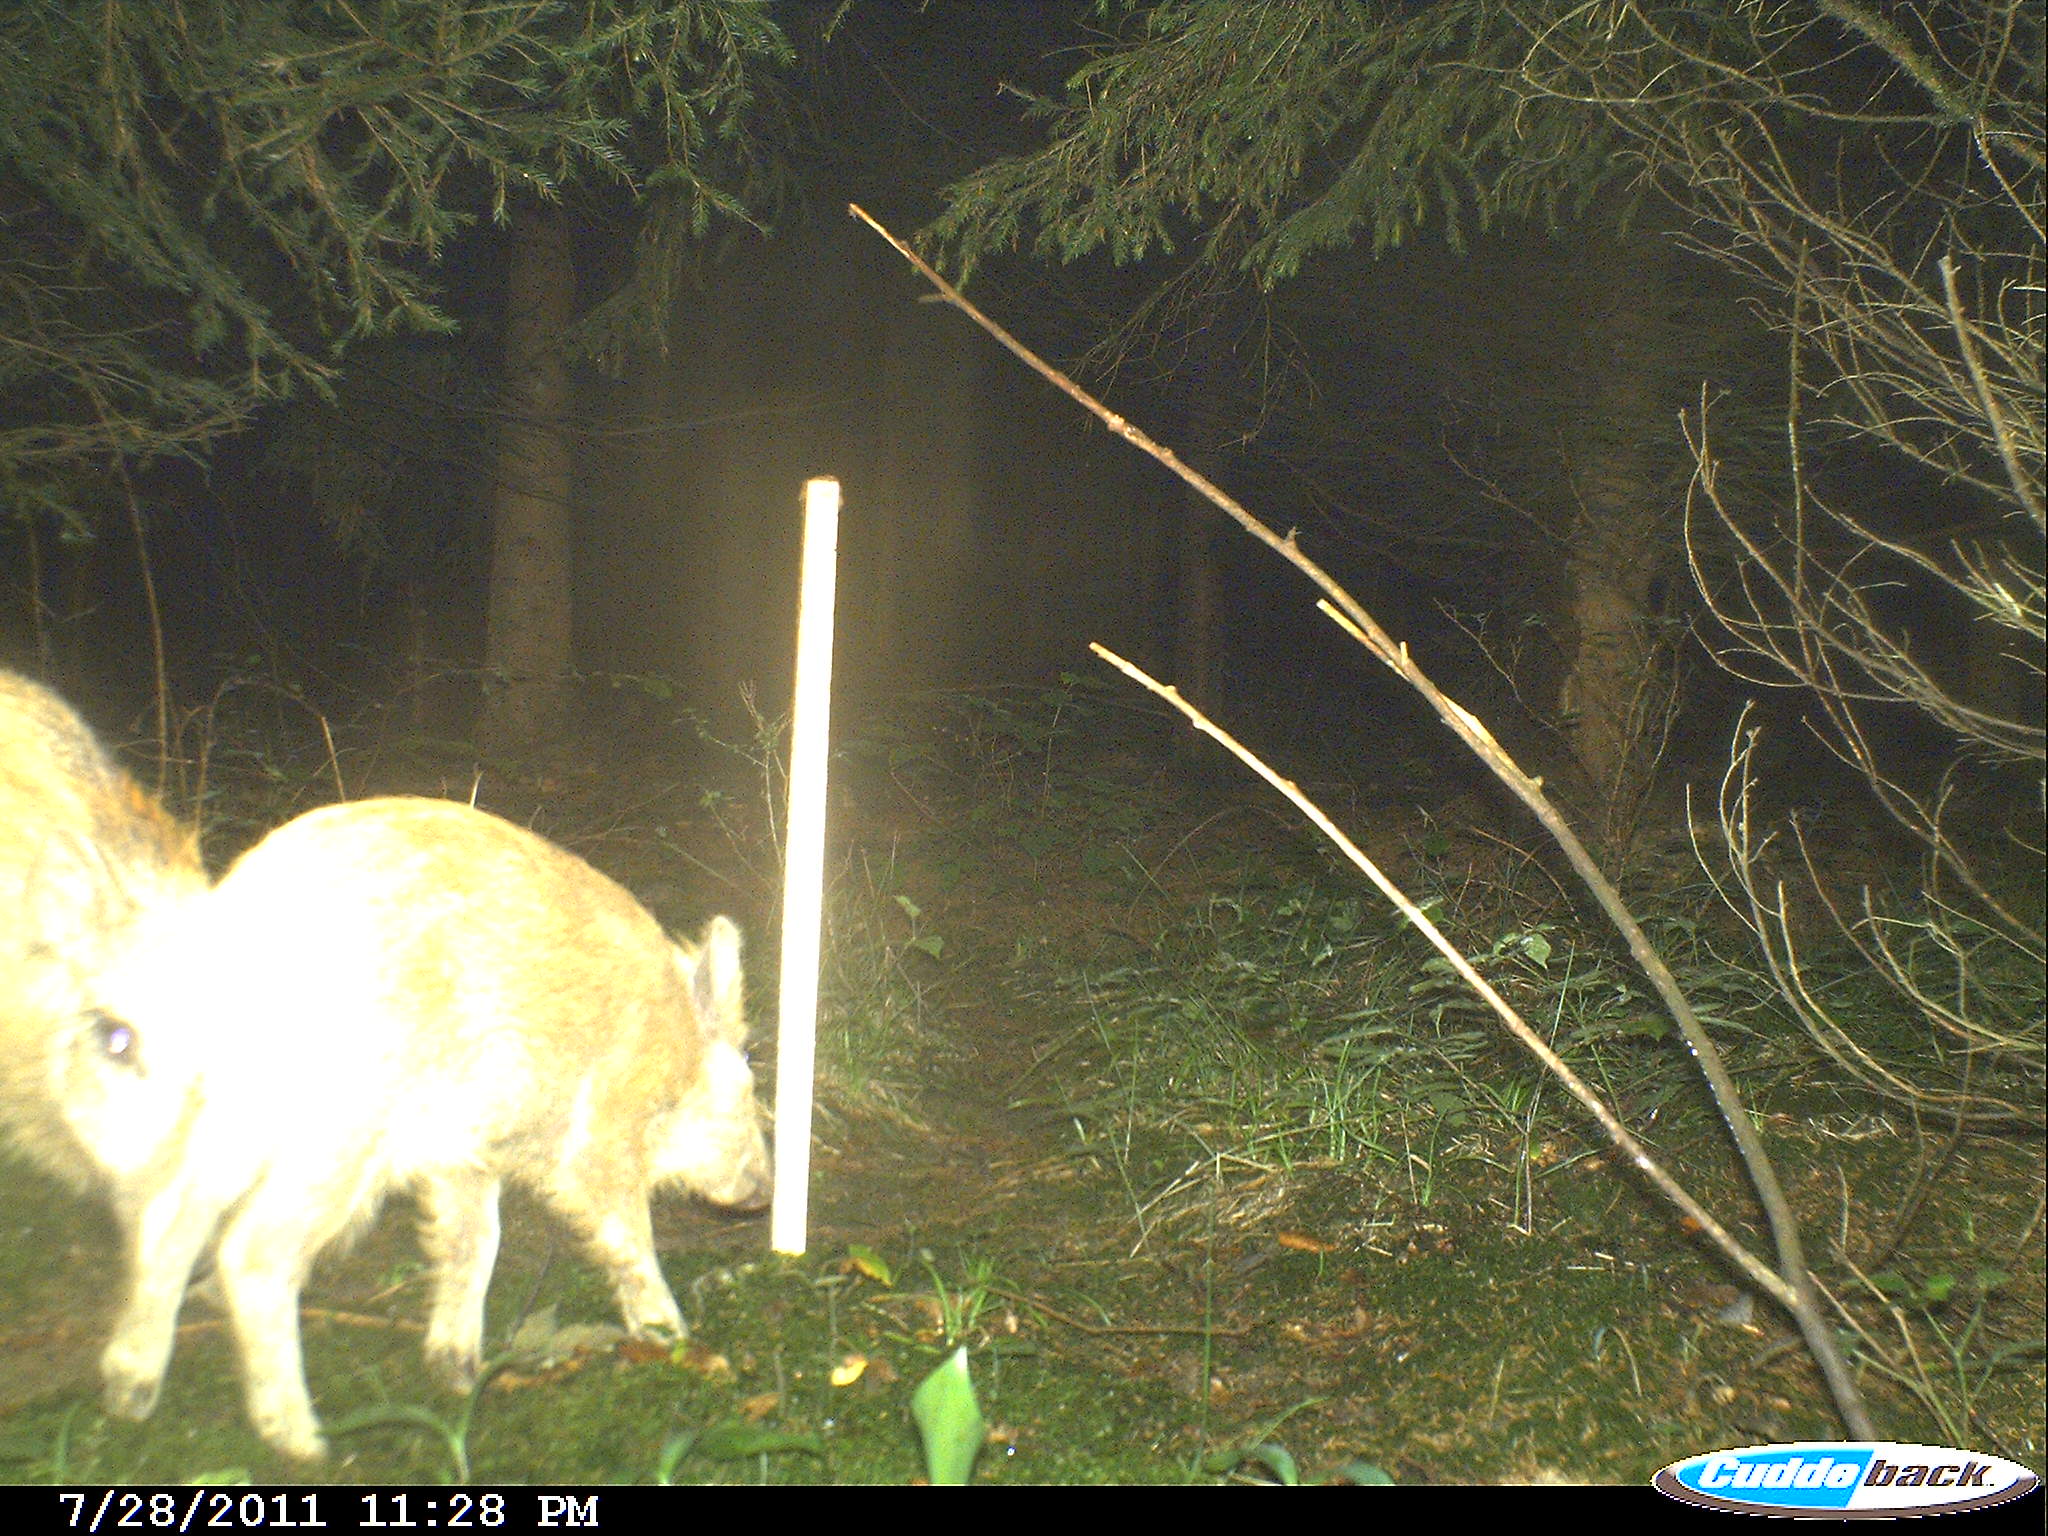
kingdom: Animalia
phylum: Chordata
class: Mammalia
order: Artiodactyla
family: Suidae
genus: Sus
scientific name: Sus scrofa
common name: Wild boar
